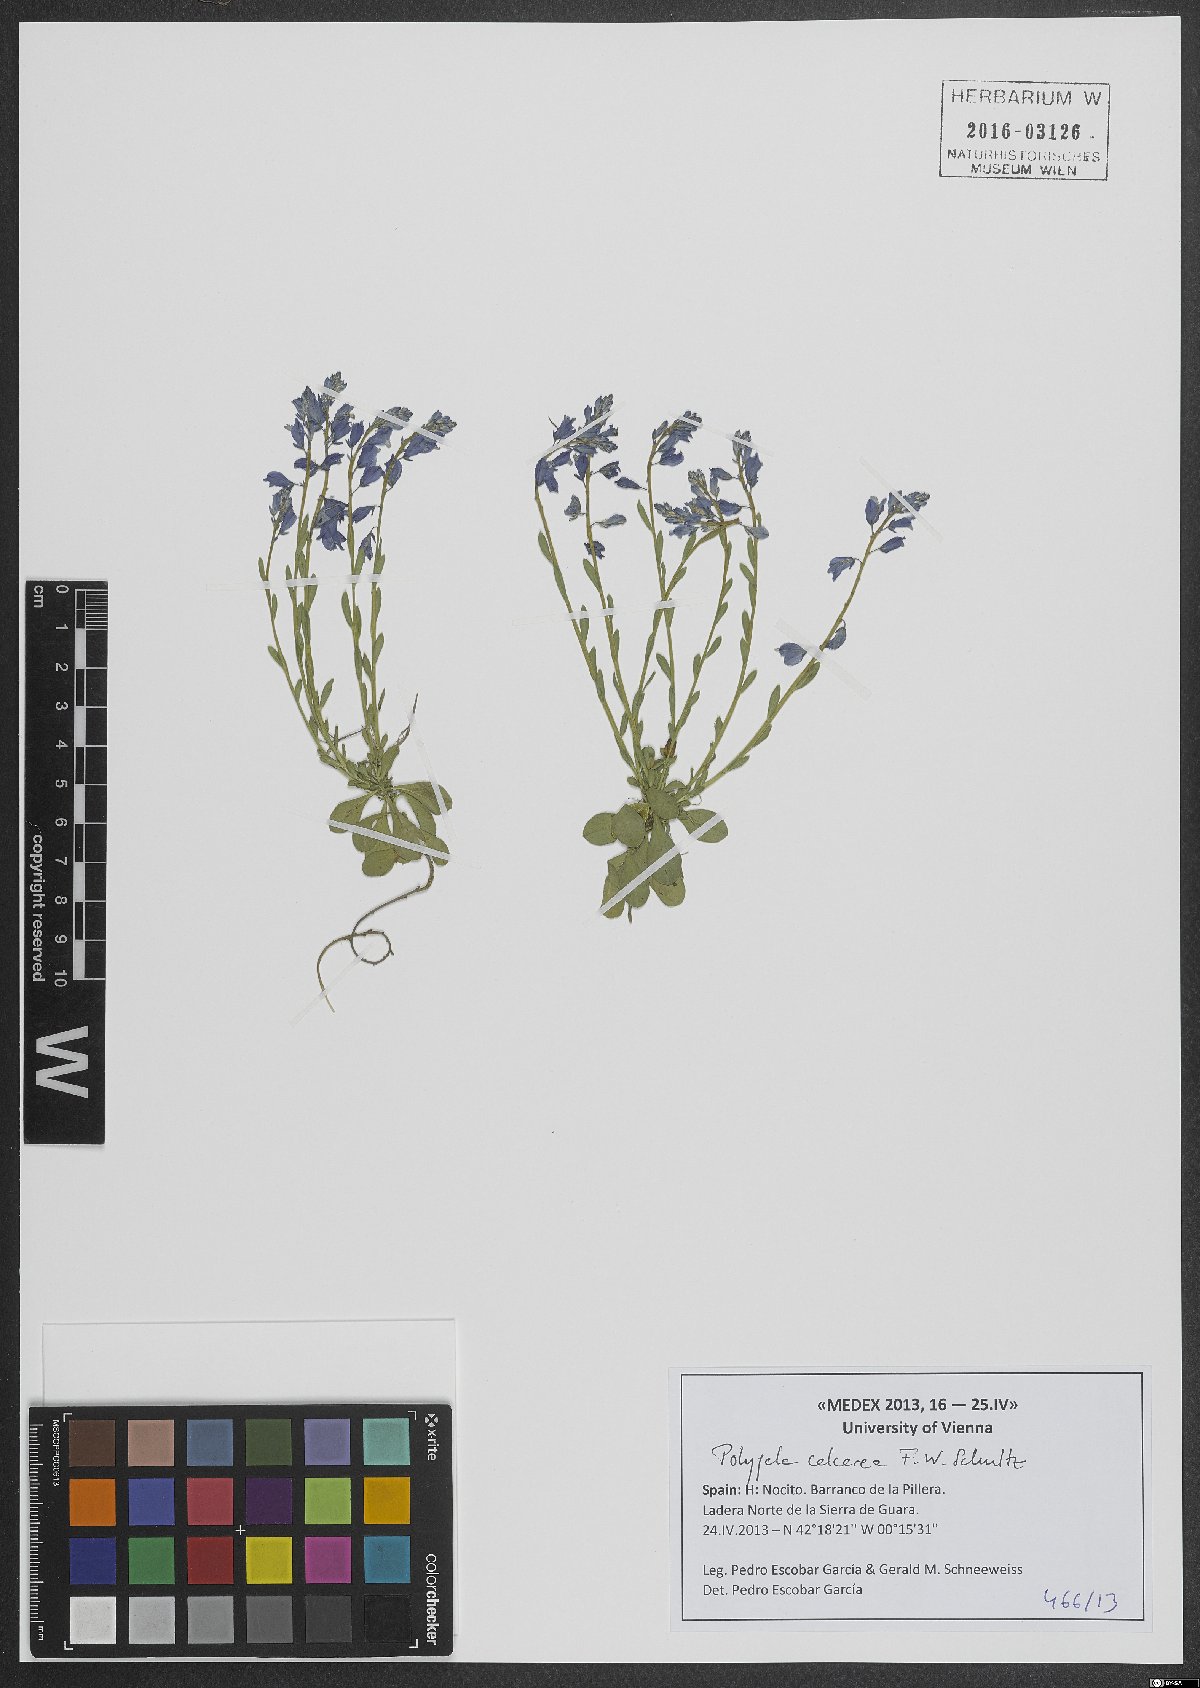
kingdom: Plantae
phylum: Tracheophyta
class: Magnoliopsida
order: Fabales
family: Polygalaceae
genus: Polygala
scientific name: Polygala calcarea
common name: Chalk milkwort
